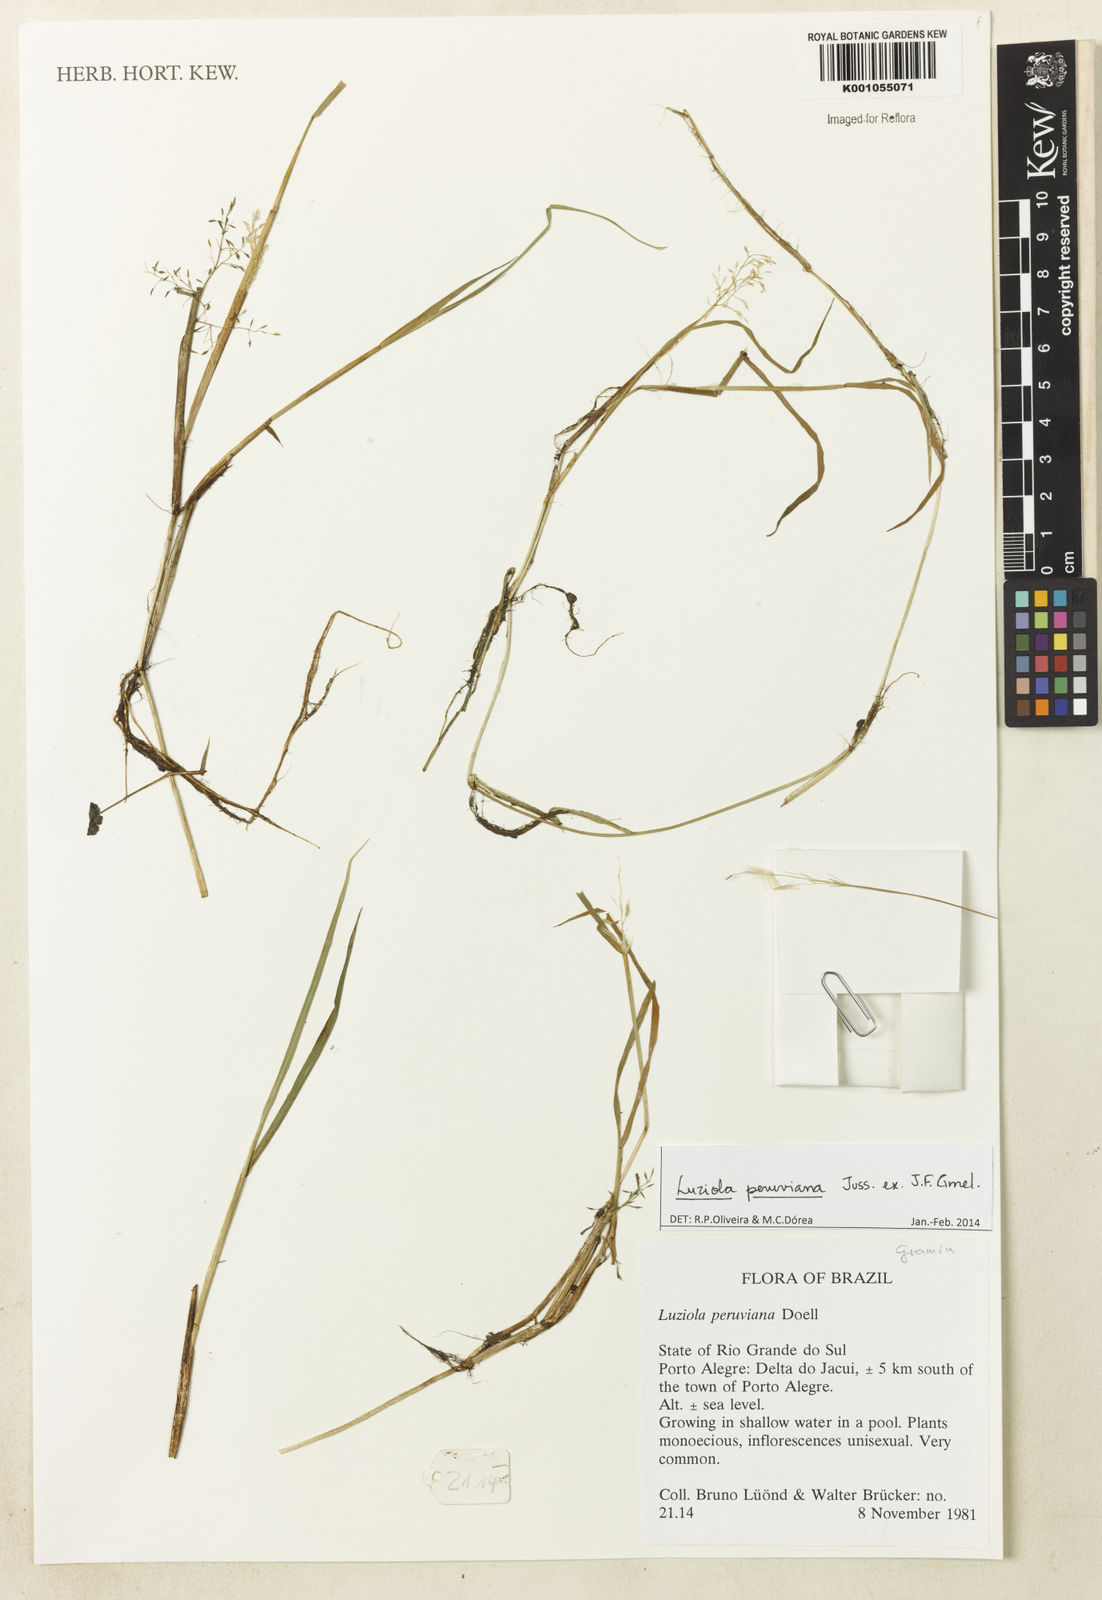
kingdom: Plantae
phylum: Tracheophyta
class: Liliopsida
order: Poales
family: Poaceae
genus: Luziola
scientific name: Luziola peruviana
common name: Peruvian watergrass
